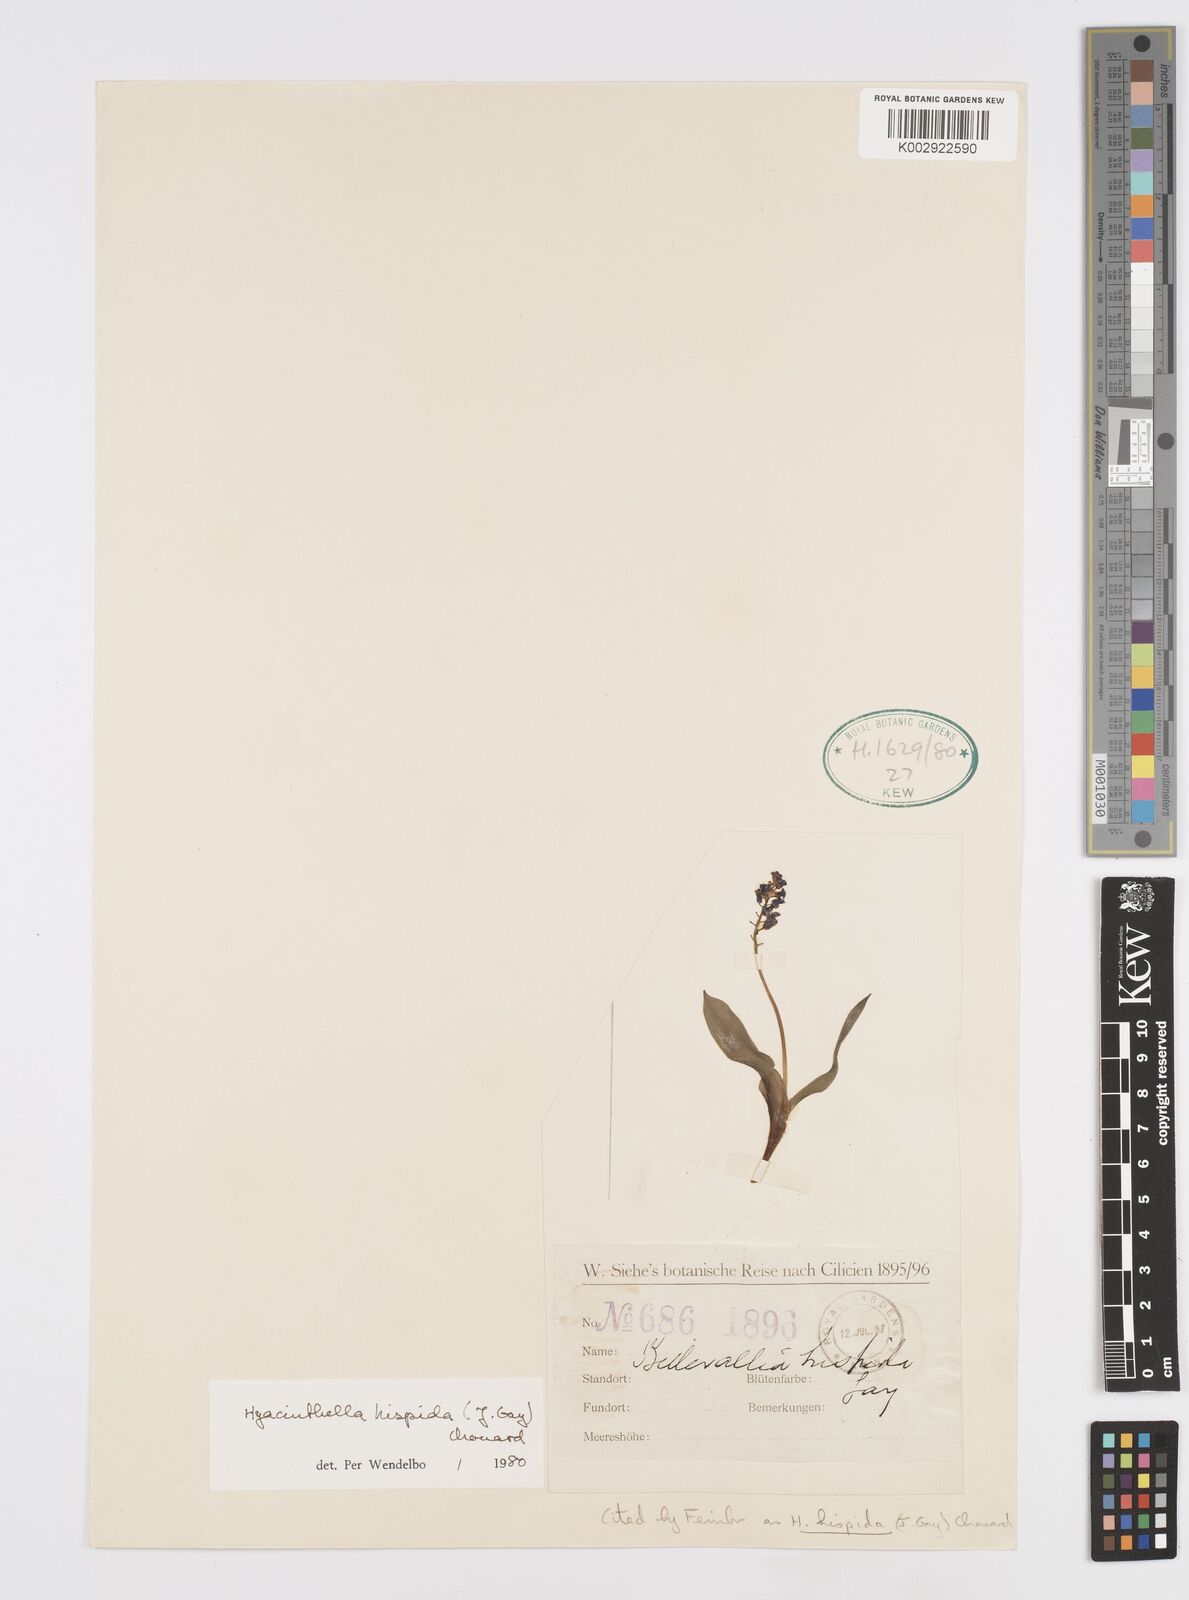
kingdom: Plantae
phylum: Tracheophyta
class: Liliopsida
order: Asparagales
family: Asparagaceae
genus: Hyacinthella
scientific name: Hyacinthella hispida
